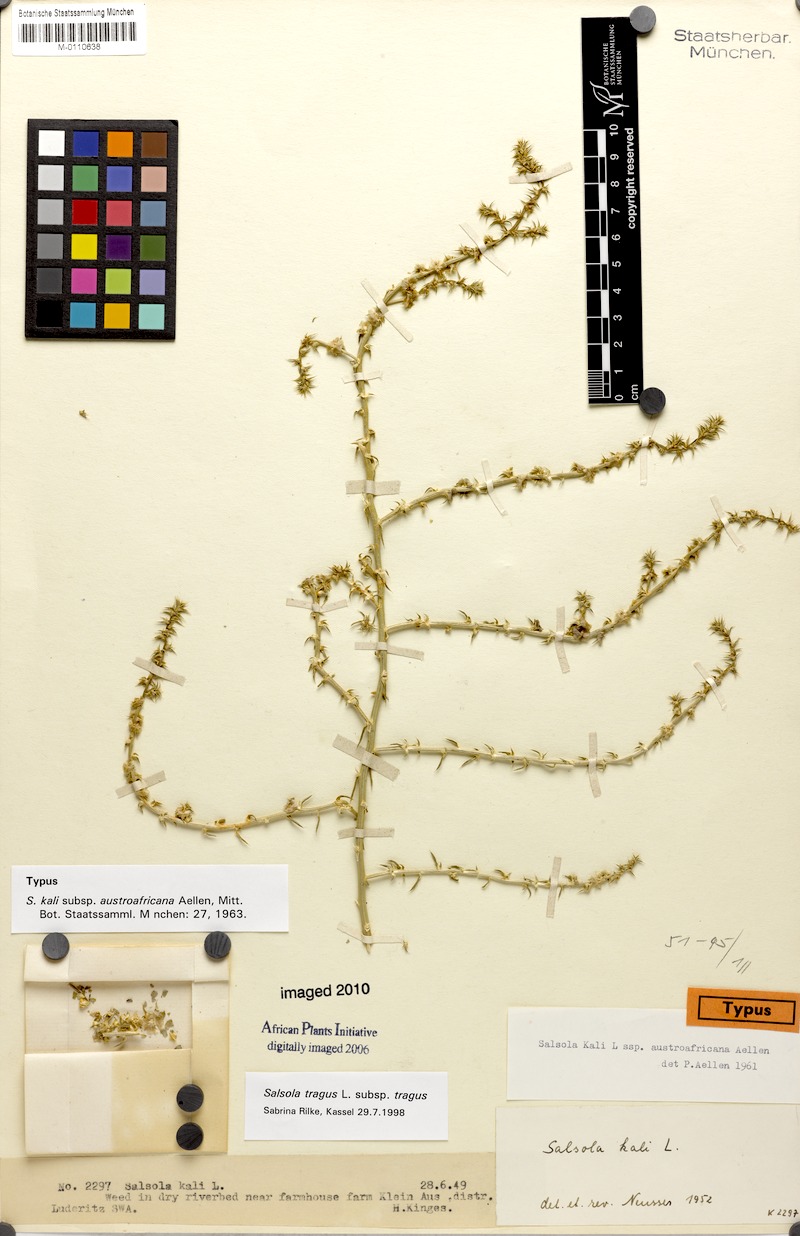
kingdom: Plantae
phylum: Tracheophyta
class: Magnoliopsida
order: Caryophyllales
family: Amaranthaceae
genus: Salsola
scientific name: Salsola tragus
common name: Prickly russian thistle
